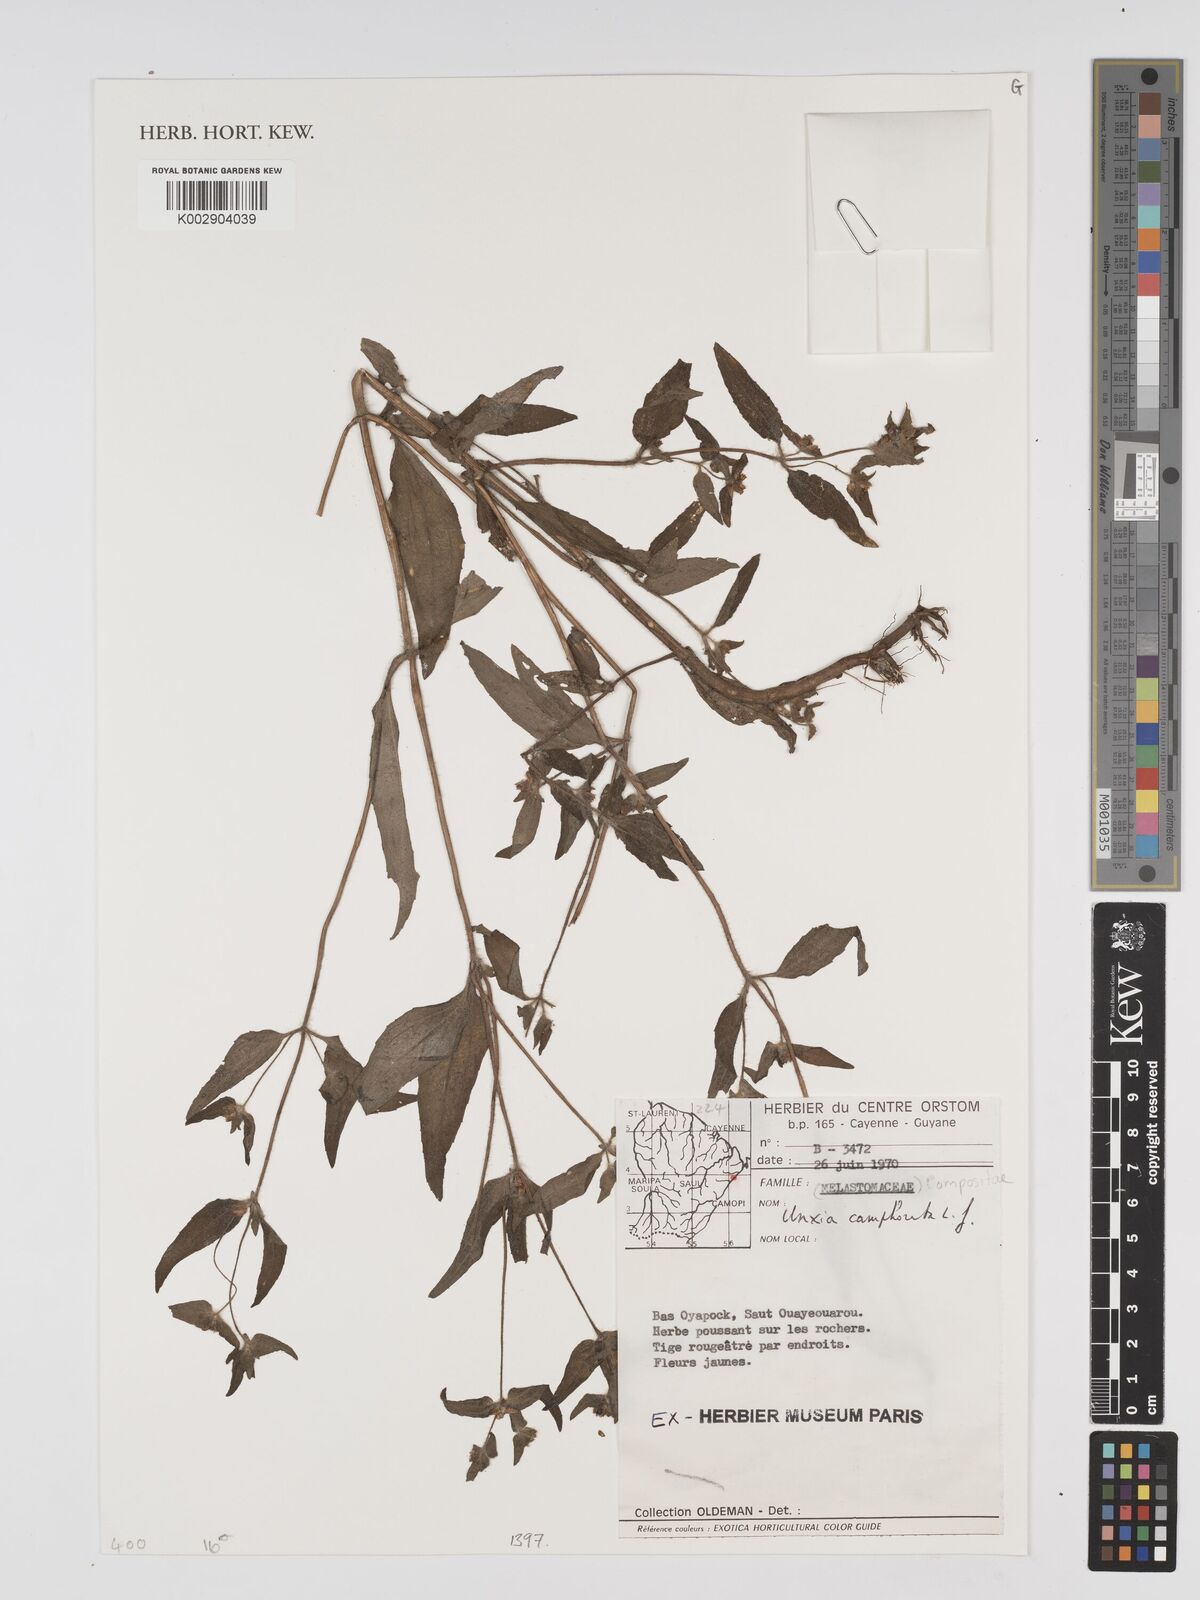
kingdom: Plantae
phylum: Tracheophyta
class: Magnoliopsida
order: Asterales
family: Asteraceae
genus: Unxia
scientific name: Unxia camphorata
